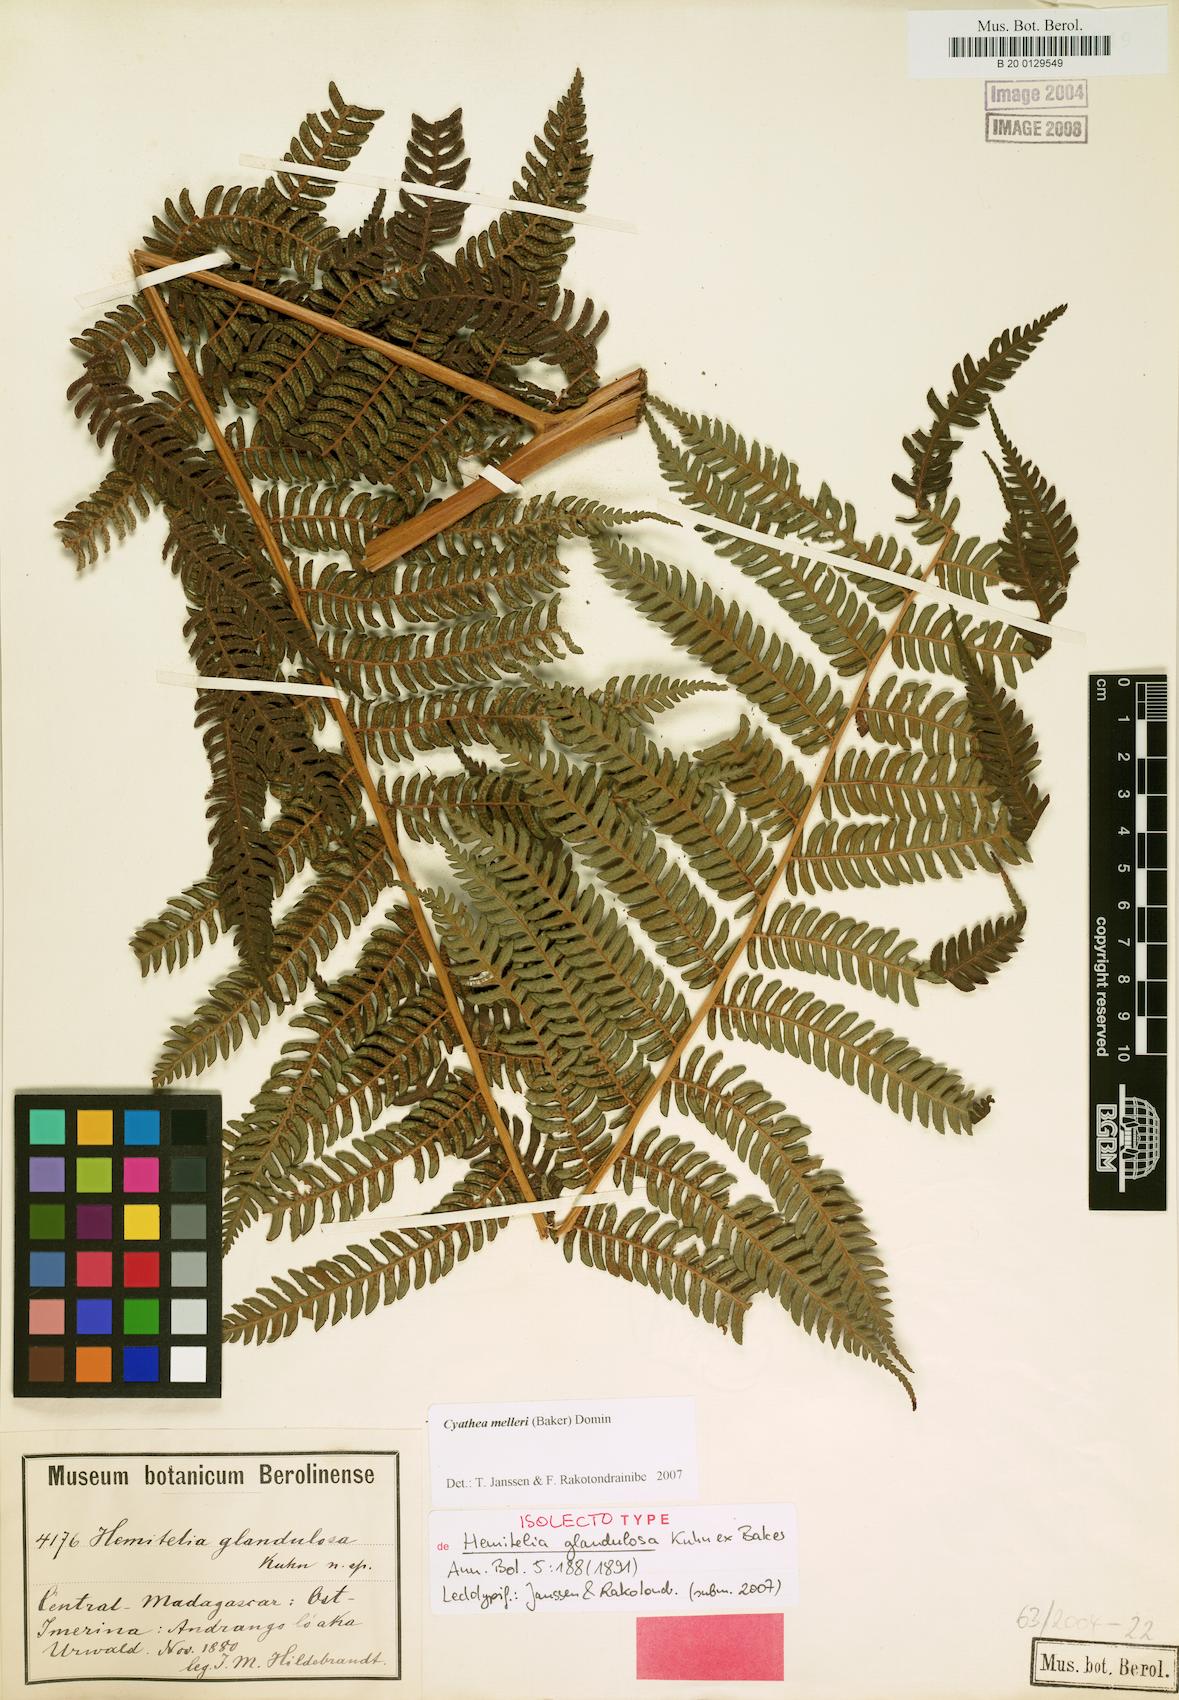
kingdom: Plantae
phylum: Tracheophyta
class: Polypodiopsida
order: Cyatheales
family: Cyatheaceae
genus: Alsophila
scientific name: Alsophila melleri
